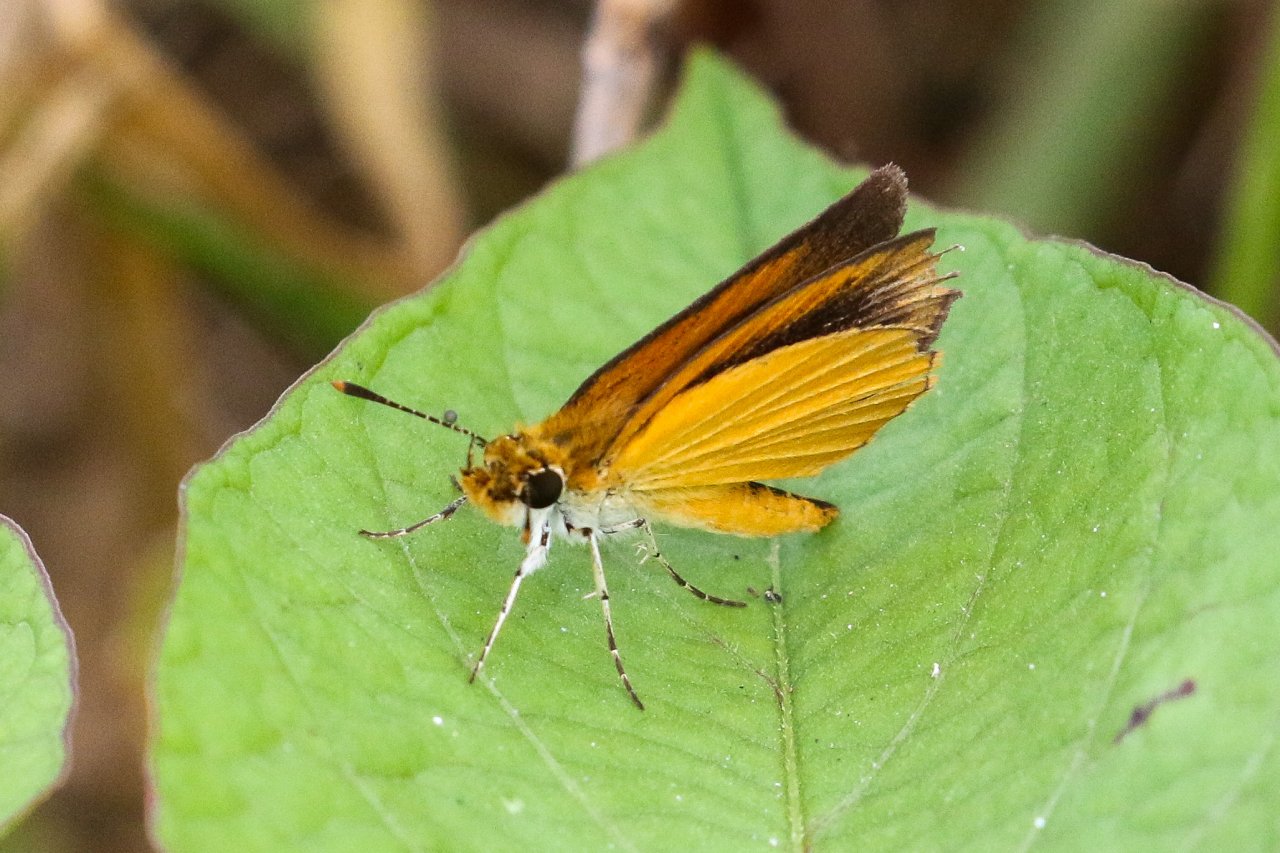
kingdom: Animalia
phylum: Arthropoda
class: Insecta
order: Lepidoptera
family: Hesperiidae
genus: Ancyloxypha
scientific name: Ancyloxypha numitor
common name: Least Skipper
